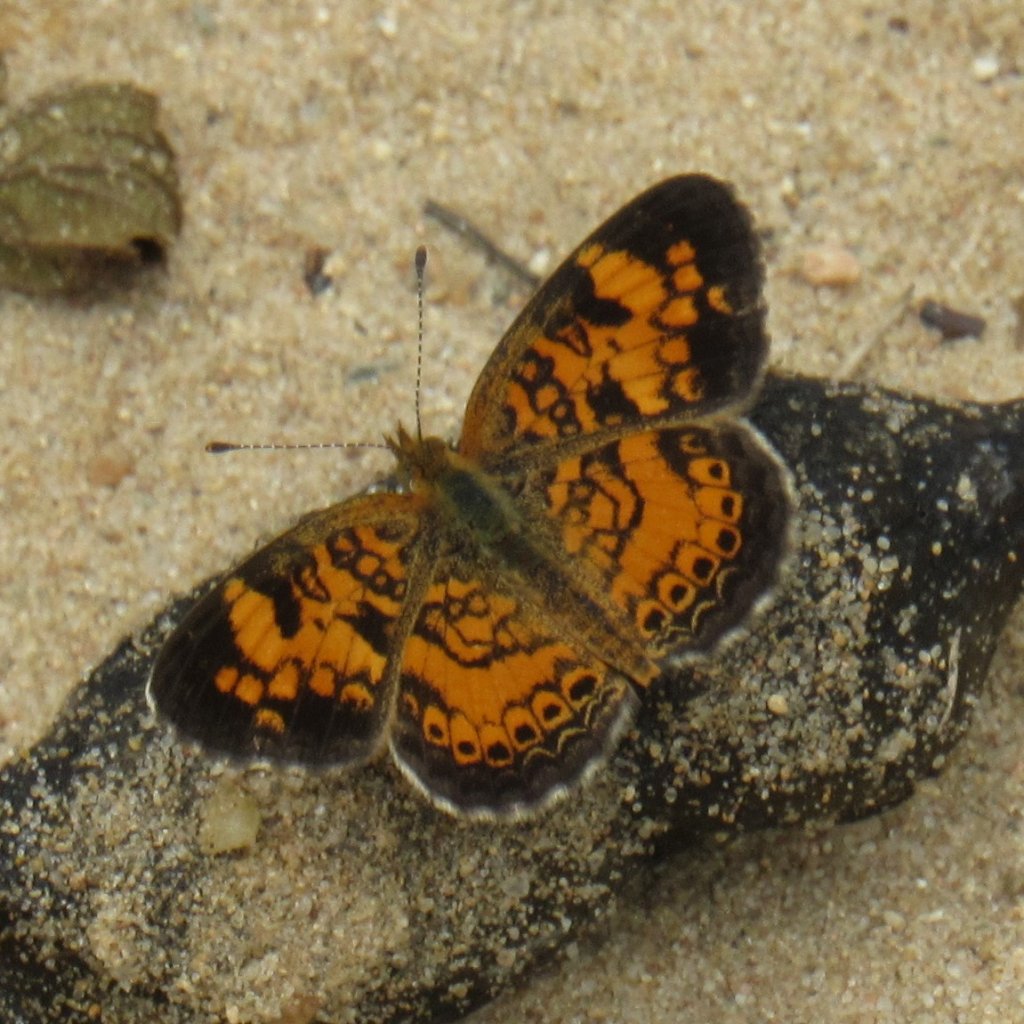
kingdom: Animalia
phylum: Arthropoda
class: Insecta
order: Lepidoptera
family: Nymphalidae
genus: Phyciodes
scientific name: Phyciodes tharos
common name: Pearl Crescent
